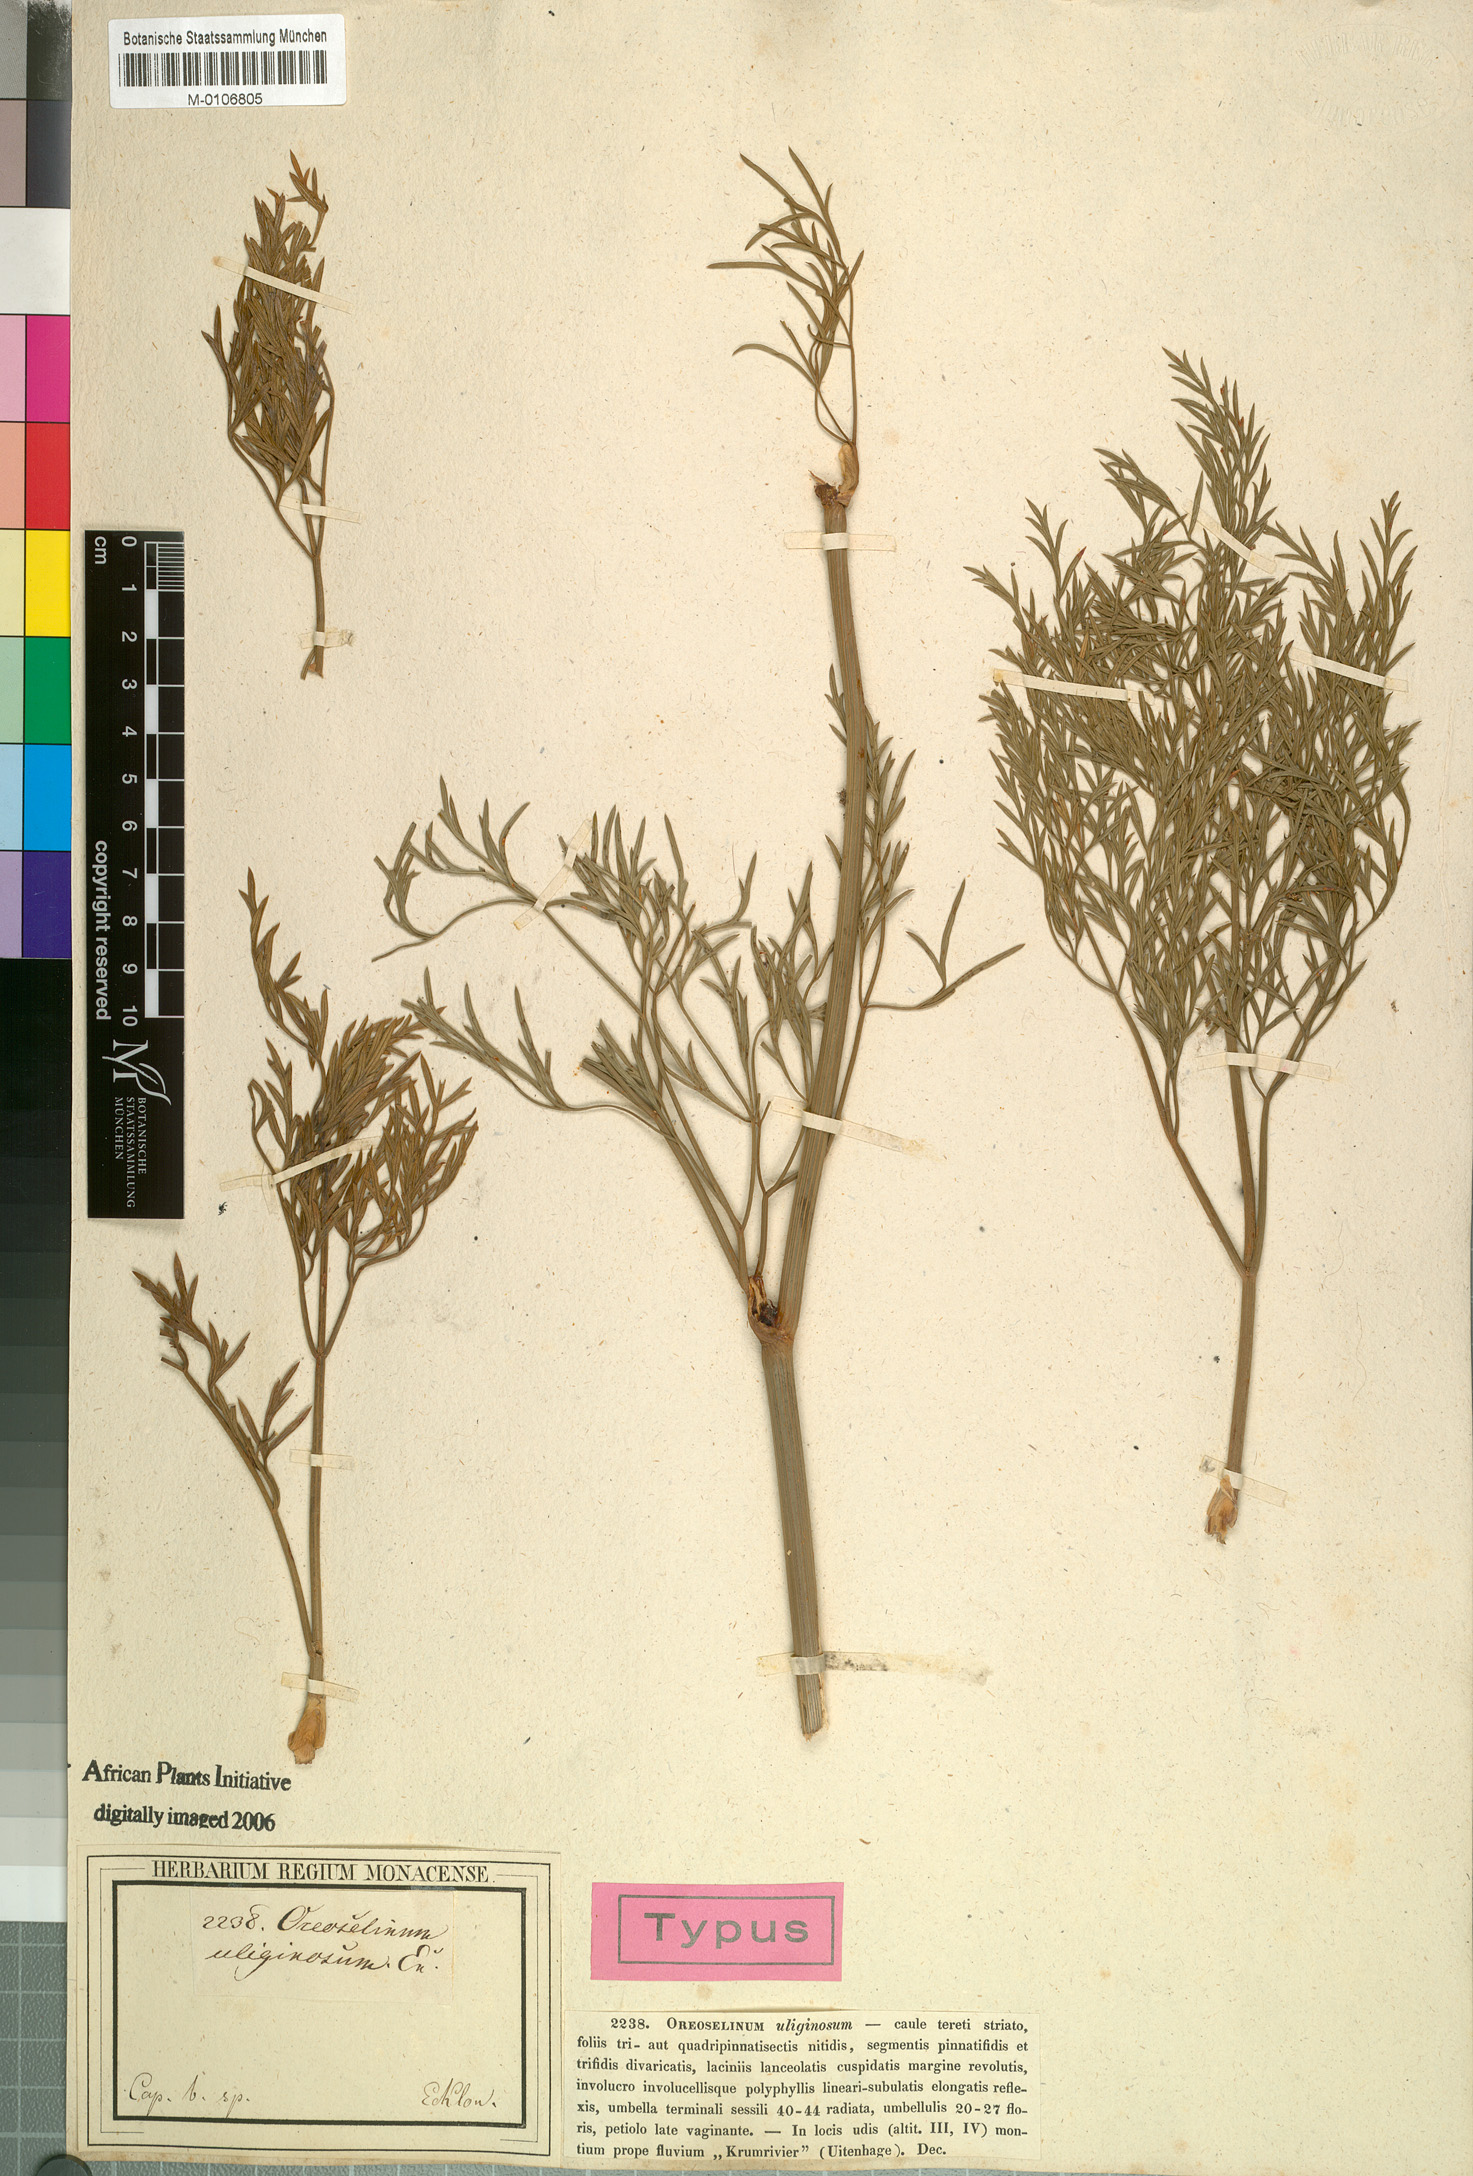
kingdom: Plantae
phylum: Tracheophyta
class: Magnoliopsida
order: Apiales
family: Apiaceae
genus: Notobubon
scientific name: Notobubon tenuifolium
